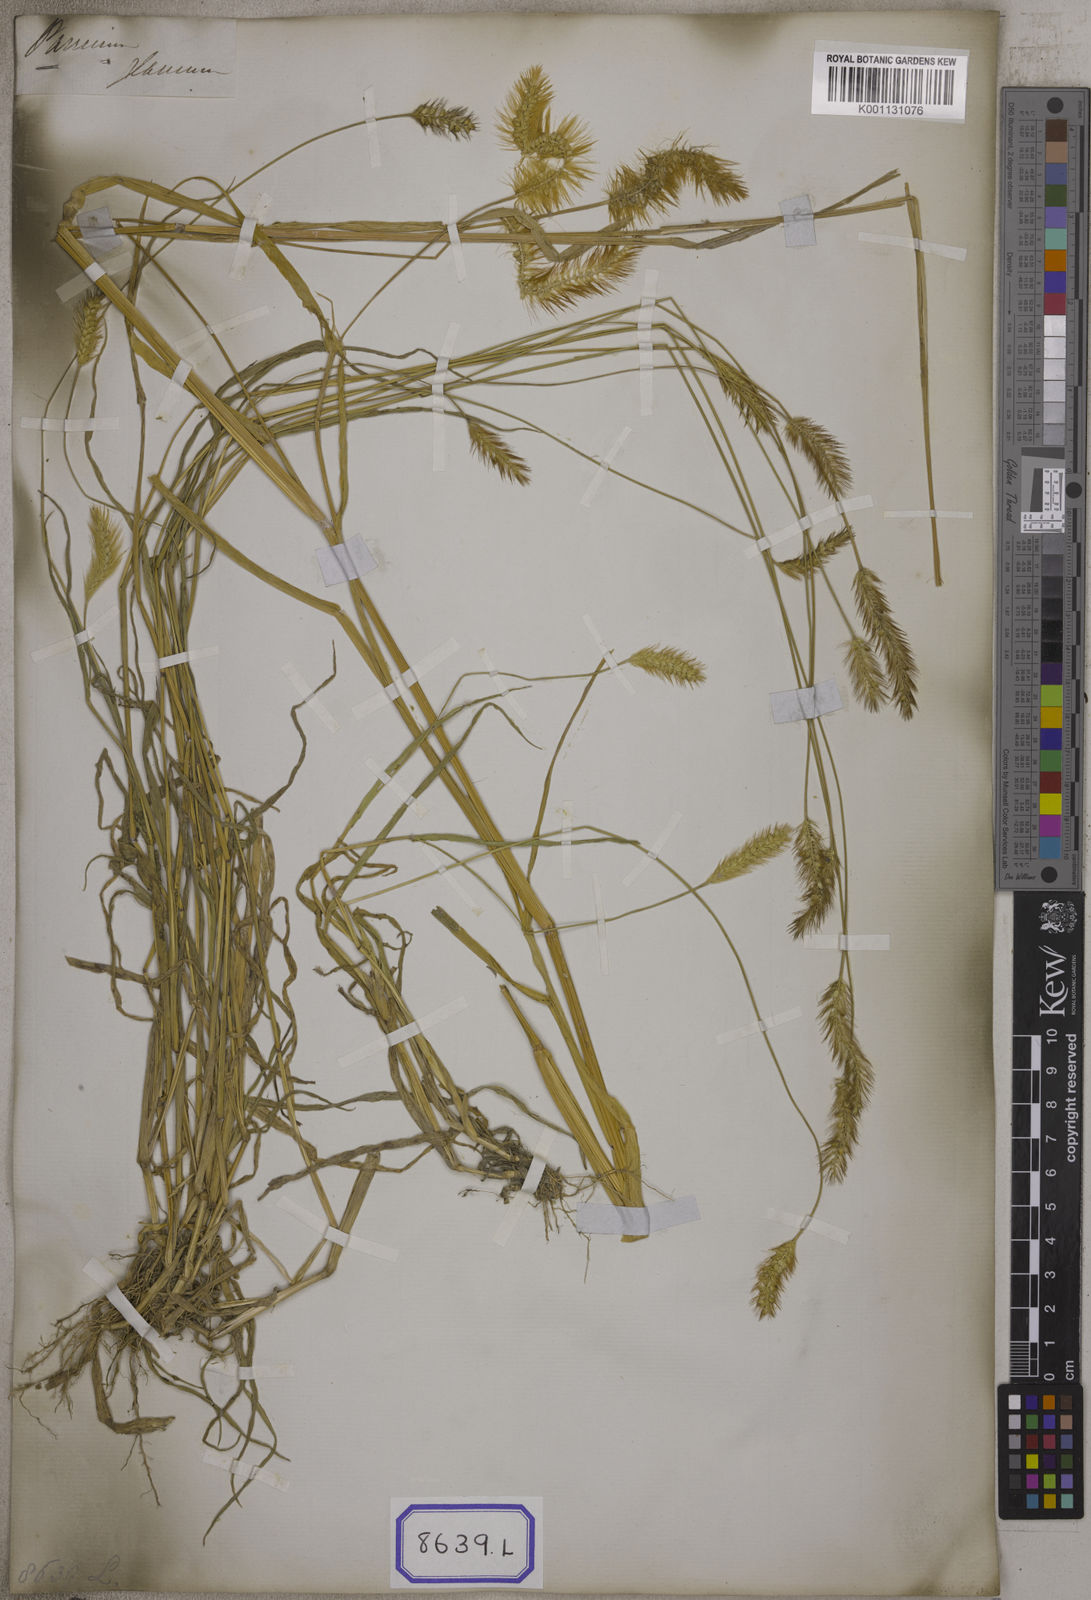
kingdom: Plantae
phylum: Tracheophyta
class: Liliopsida
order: Poales
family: Poaceae
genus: Cenchrus
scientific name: Cenchrus americanus
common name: Pearl millet
